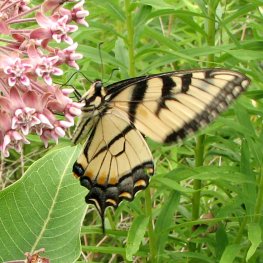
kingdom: Animalia
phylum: Arthropoda
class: Insecta
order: Lepidoptera
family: Papilionidae
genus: Pterourus
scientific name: Pterourus glaucus
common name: Eastern Tiger Swallowtail
